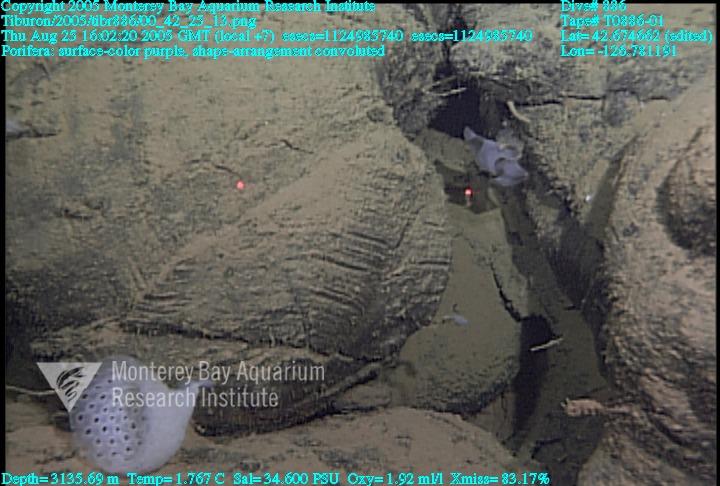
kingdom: Animalia
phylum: Porifera
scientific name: Porifera
